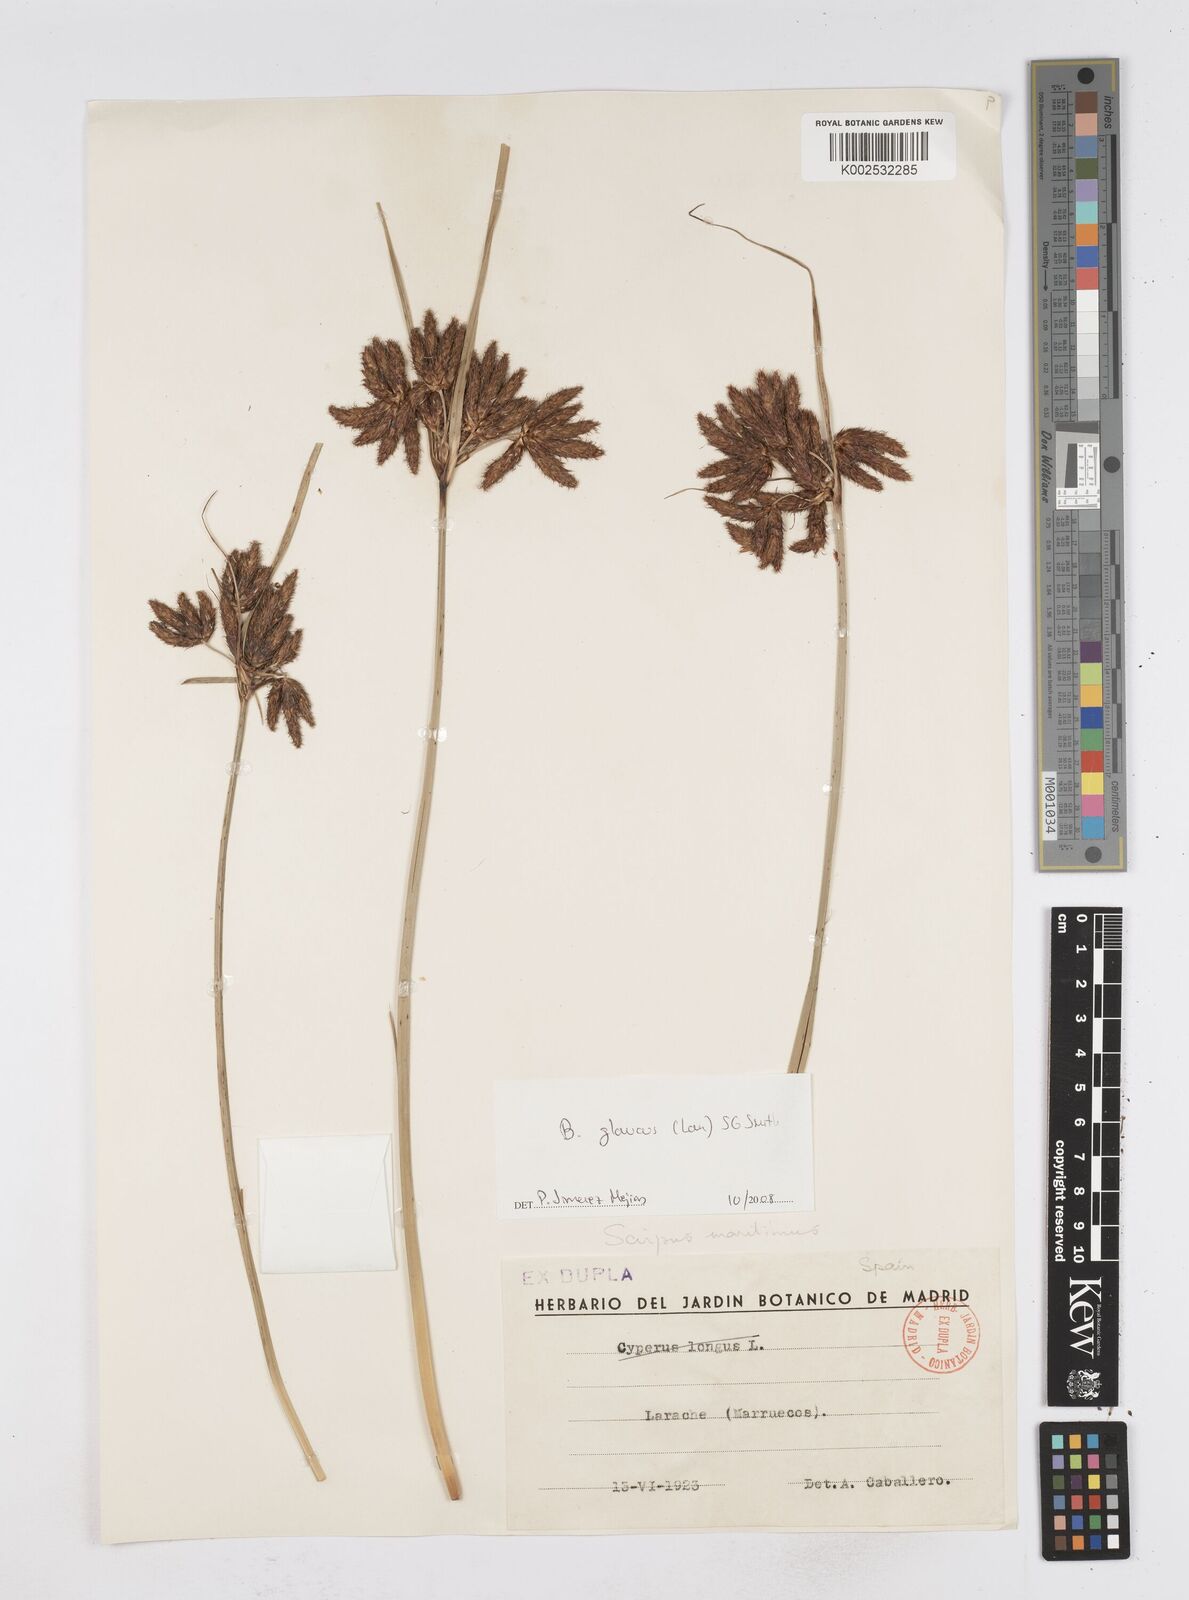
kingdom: Plantae
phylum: Tracheophyta
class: Liliopsida
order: Poales
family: Cyperaceae
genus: Bolboschoenus
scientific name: Bolboschoenus maritimus
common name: Sea club-rush
